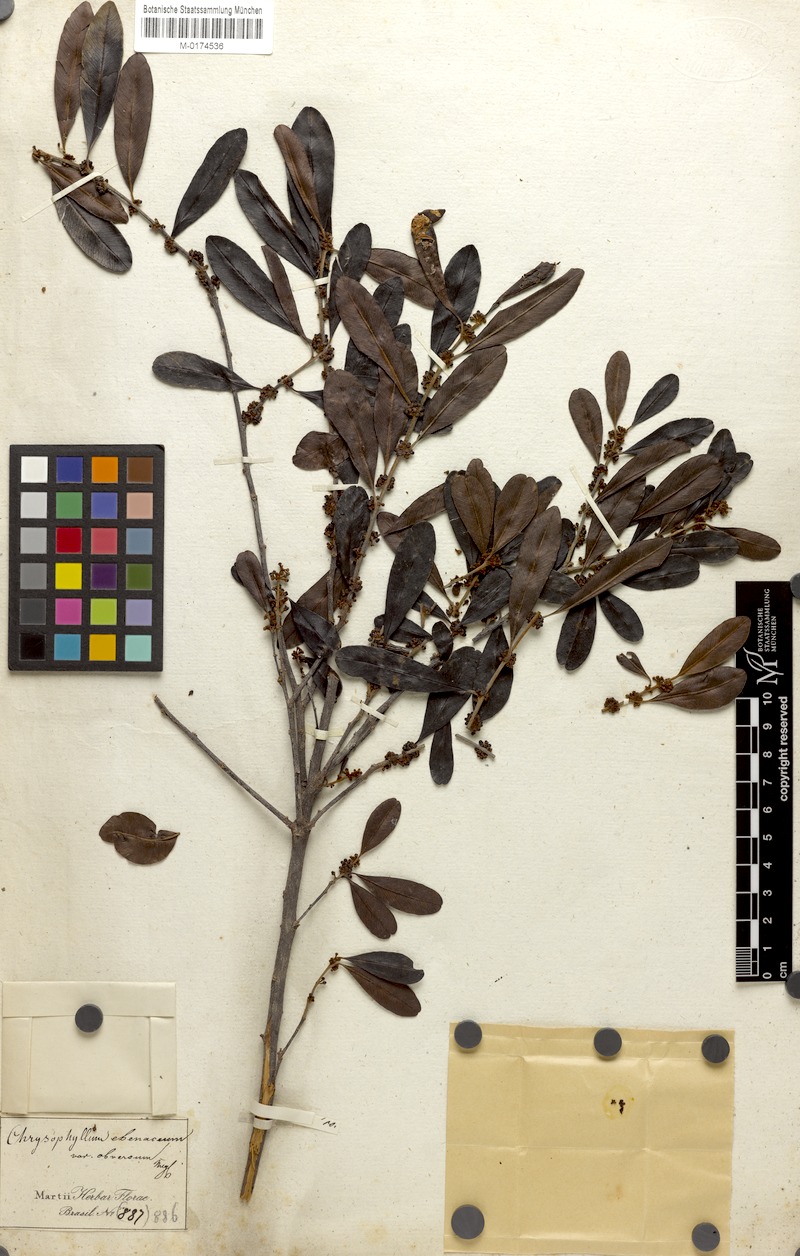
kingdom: Plantae
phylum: Tracheophyta
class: Magnoliopsida
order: Ericales
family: Sapotaceae
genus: Chrysophyllum
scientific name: Chrysophyllum marginatum
